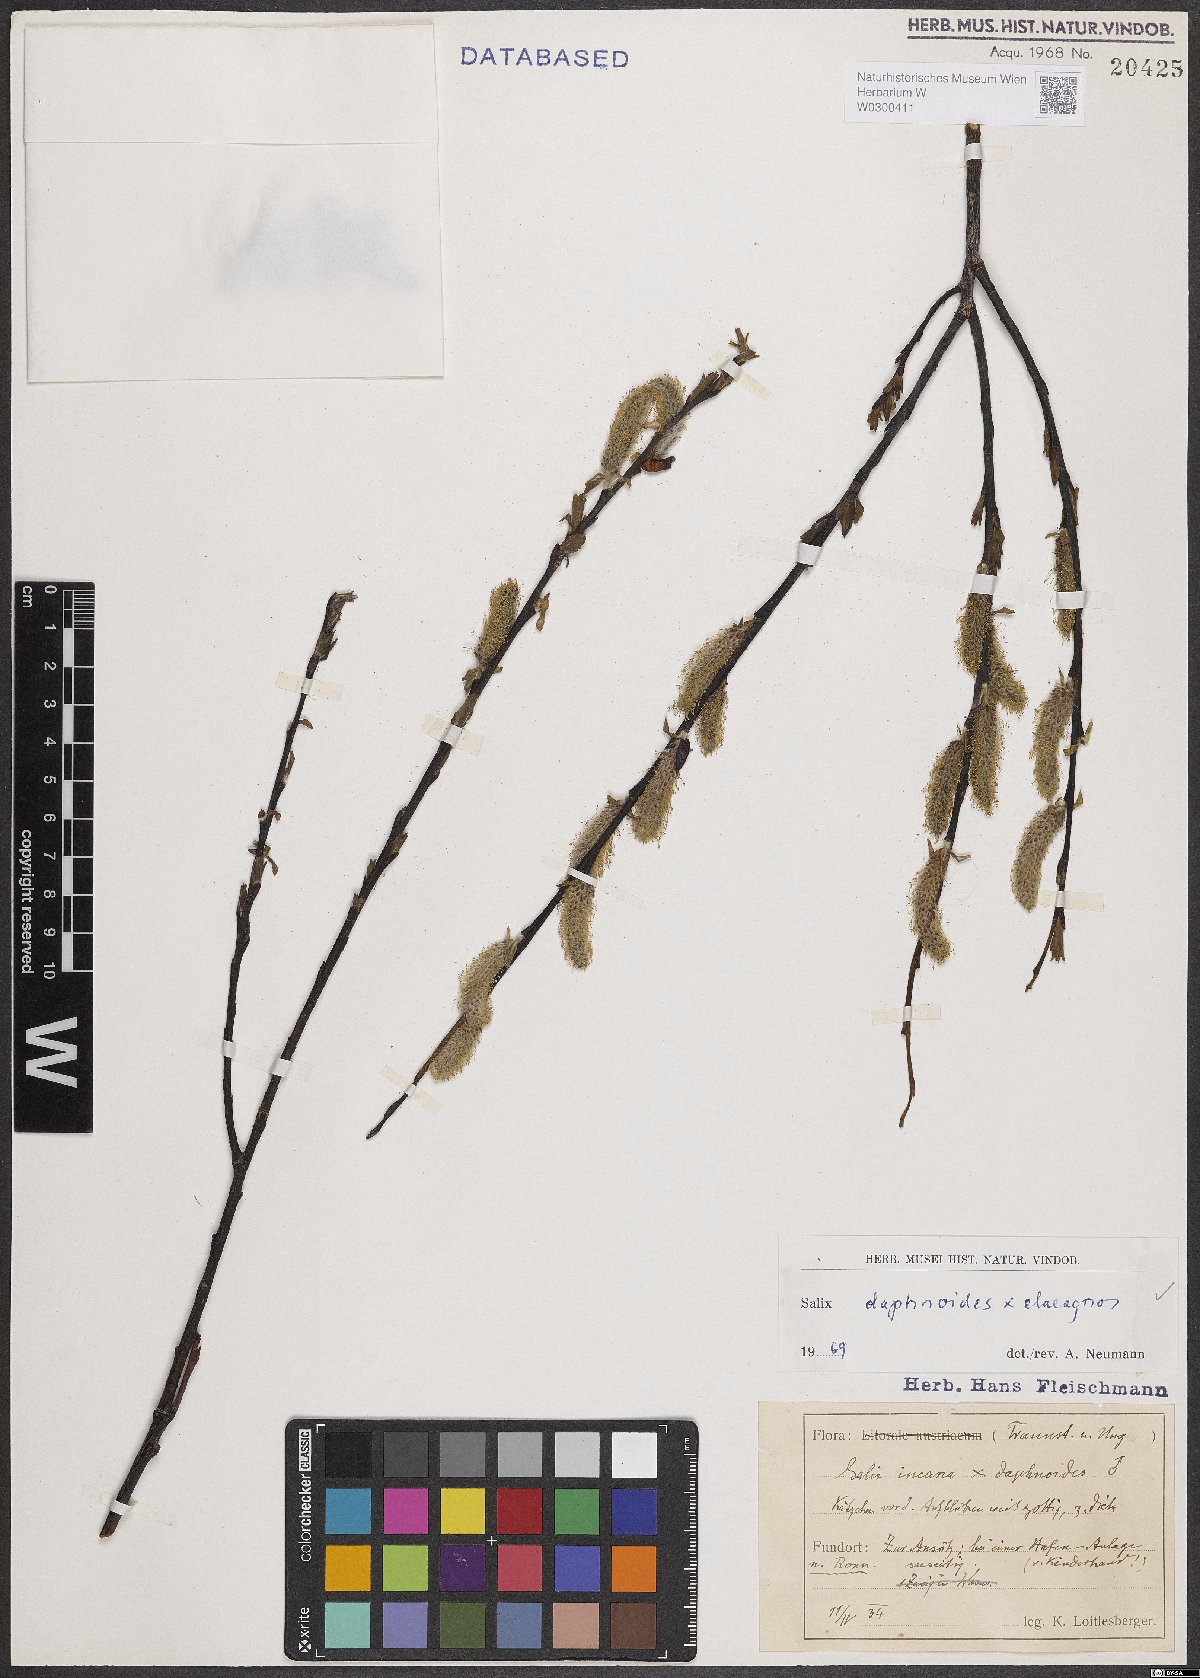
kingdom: Plantae
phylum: Tracheophyta
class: Magnoliopsida
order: Malpighiales
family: Salicaceae
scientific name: Salicaceae
